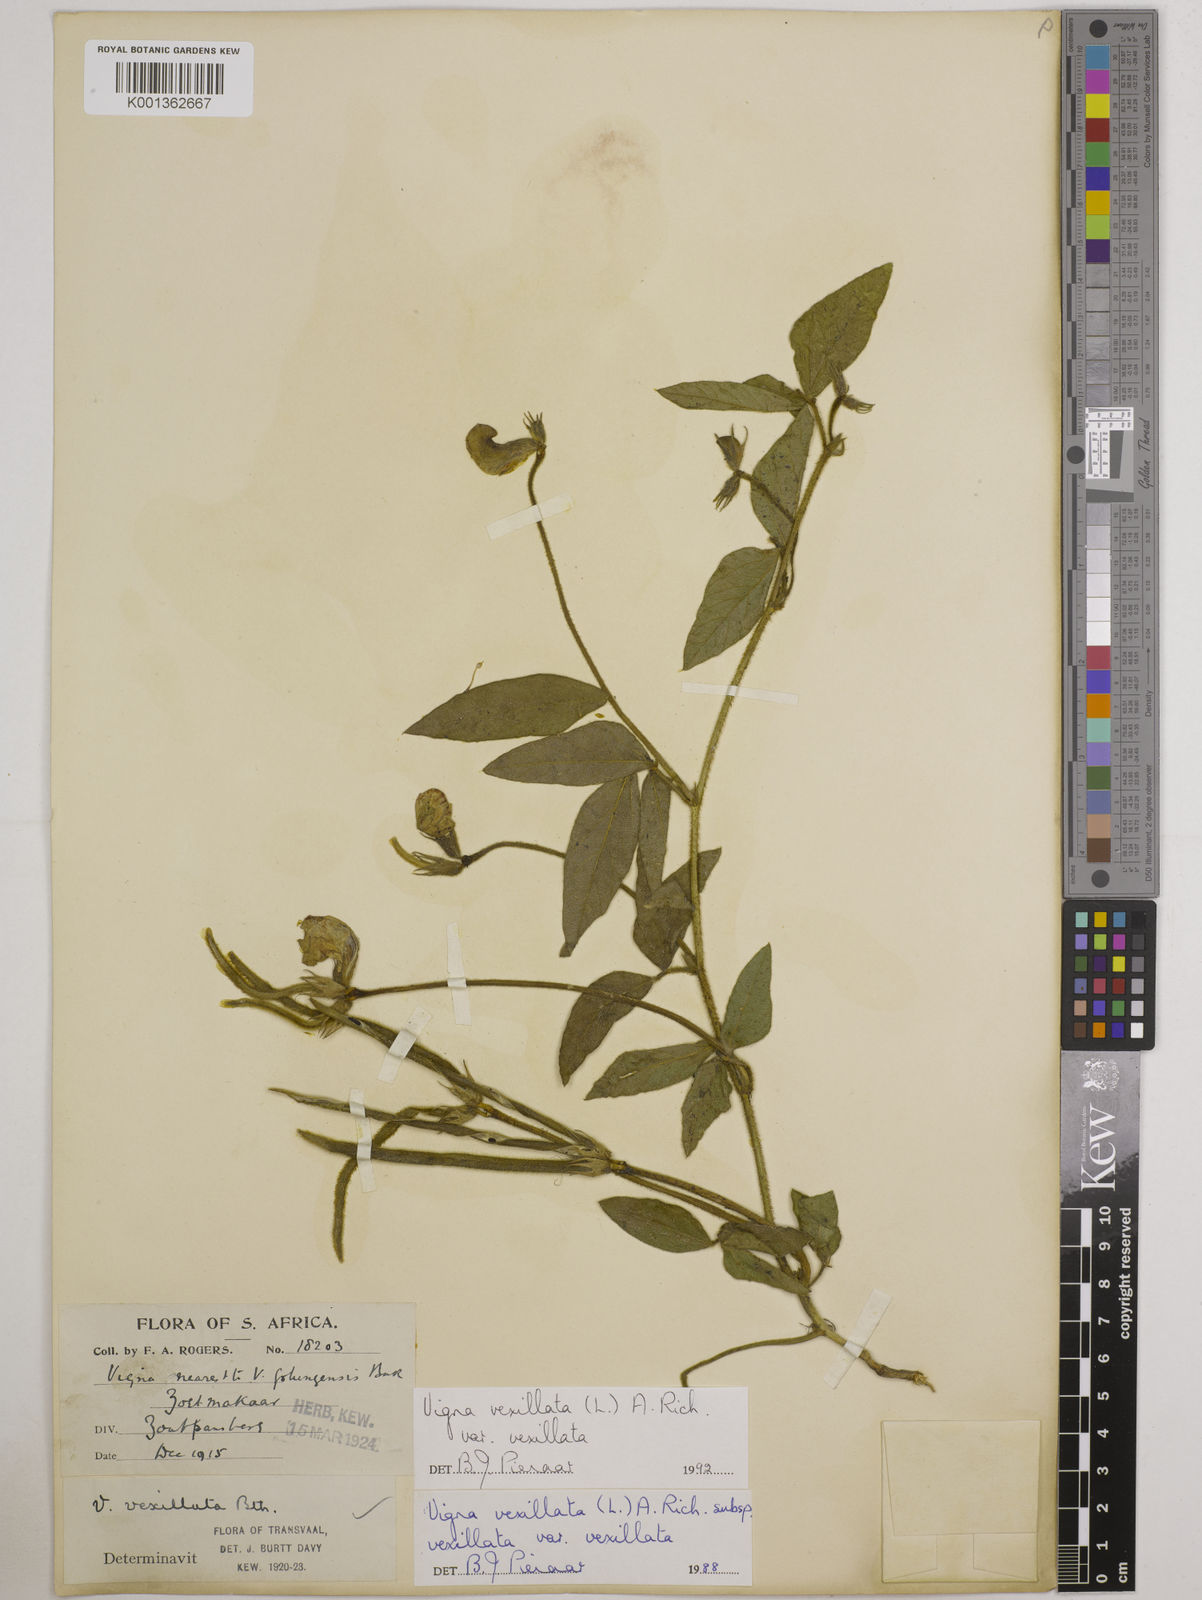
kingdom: Plantae
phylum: Tracheophyta
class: Magnoliopsida
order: Fabales
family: Fabaceae
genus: Vigna
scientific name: Vigna
